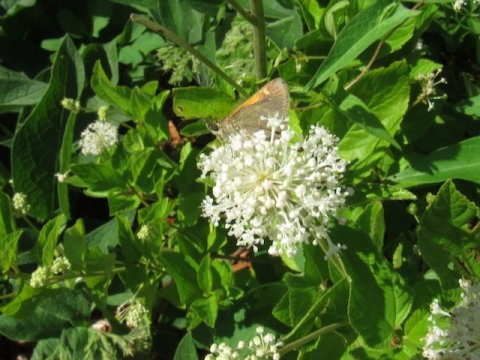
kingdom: Animalia
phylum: Arthropoda
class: Insecta
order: Lepidoptera
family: Hesperiidae
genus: Polites
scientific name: Polites themistocles
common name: Tawny-edged Skipper
